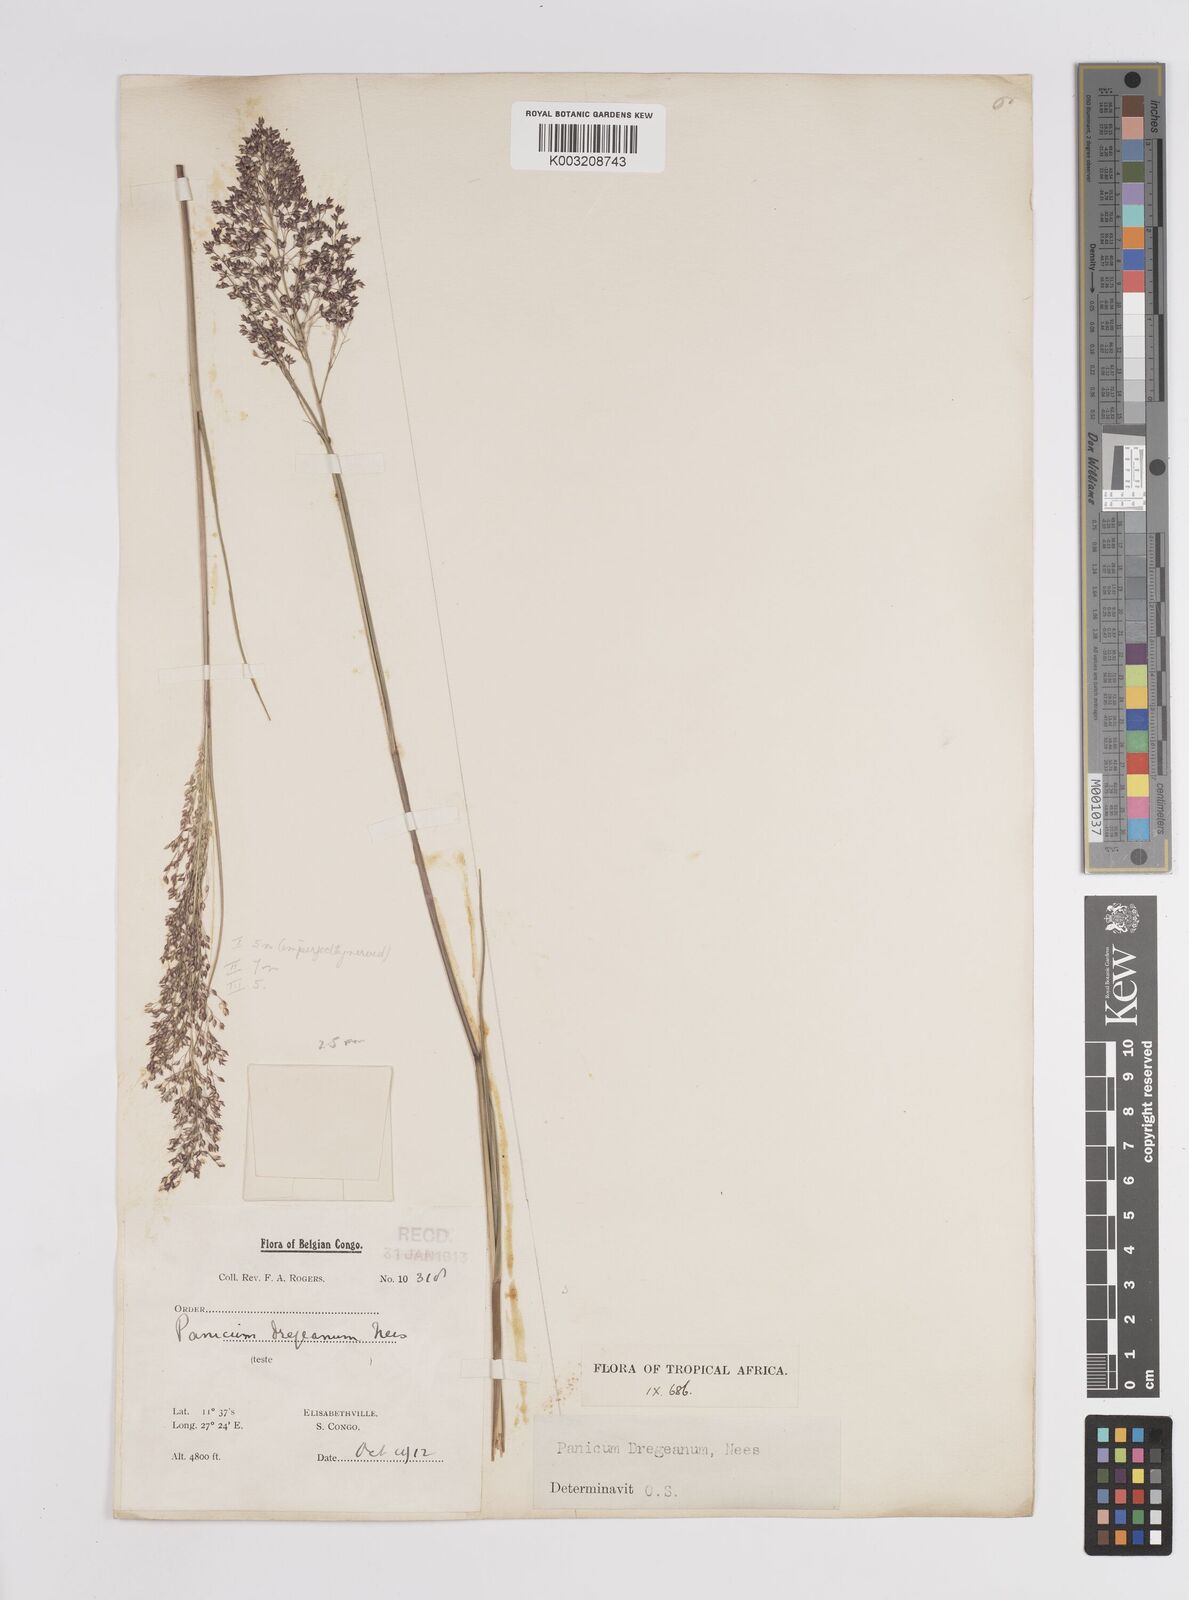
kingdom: Plantae
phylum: Tracheophyta
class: Liliopsida
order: Poales
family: Poaceae
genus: Panicum
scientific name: Panicum dregeanum
